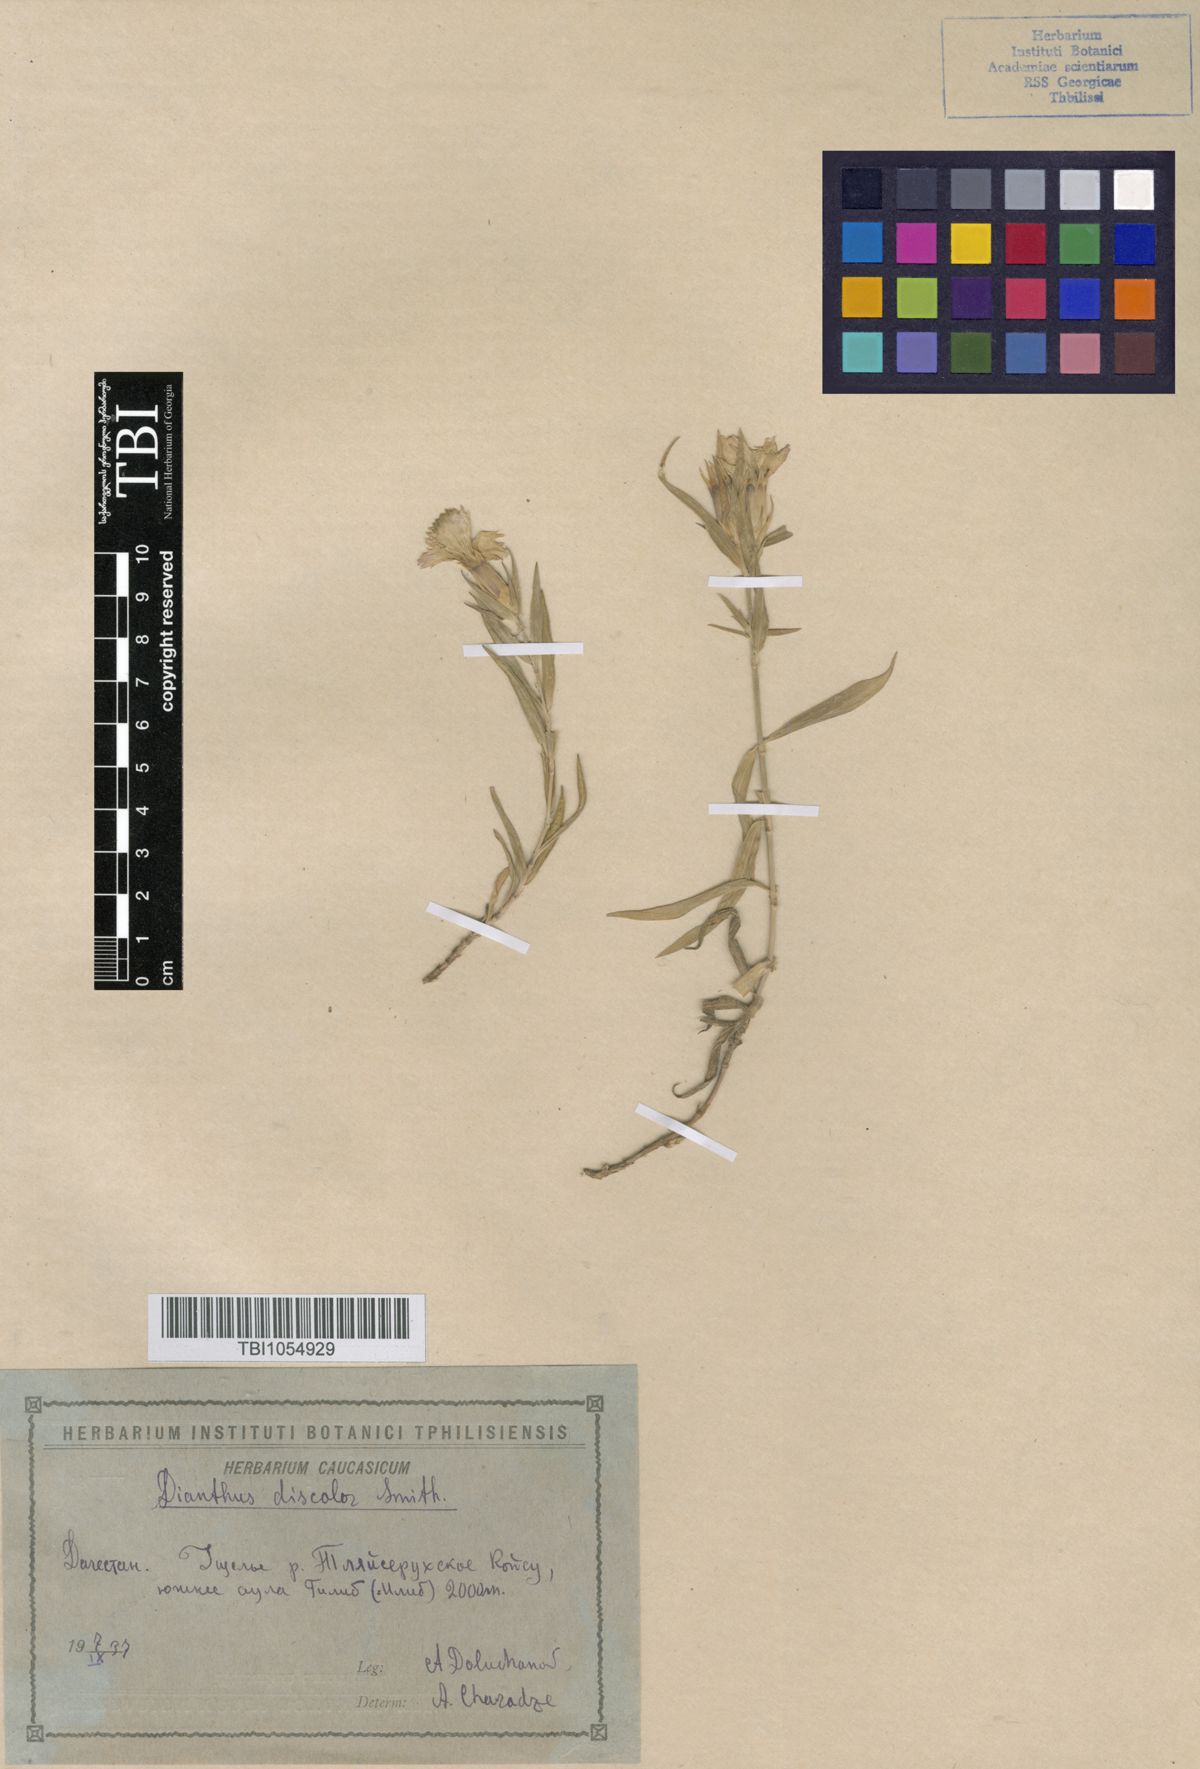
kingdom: Plantae
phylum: Tracheophyta
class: Magnoliopsida
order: Caryophyllales
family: Caryophyllaceae
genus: Dianthus
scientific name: Dianthus caucaseus
